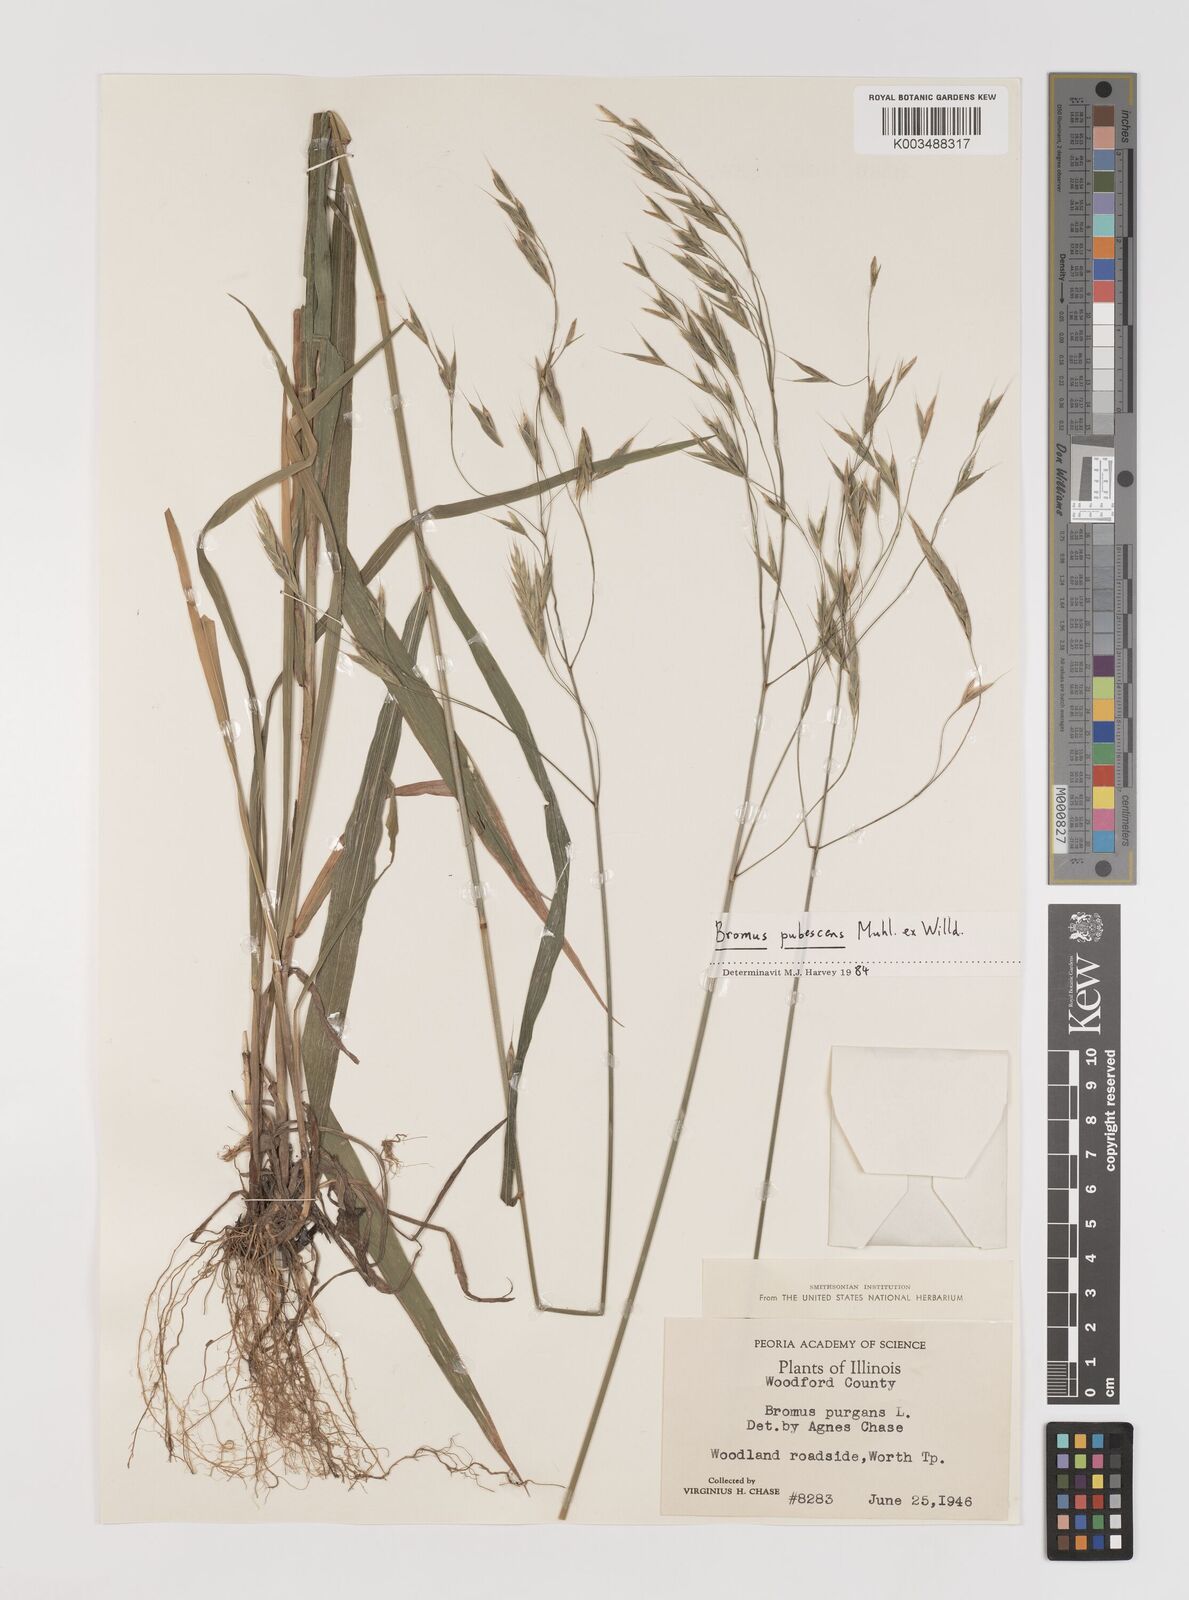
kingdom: Plantae
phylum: Tracheophyta
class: Liliopsida
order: Poales
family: Poaceae
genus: Bromus
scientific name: Bromus pubescens
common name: Hairy wood brome grass
